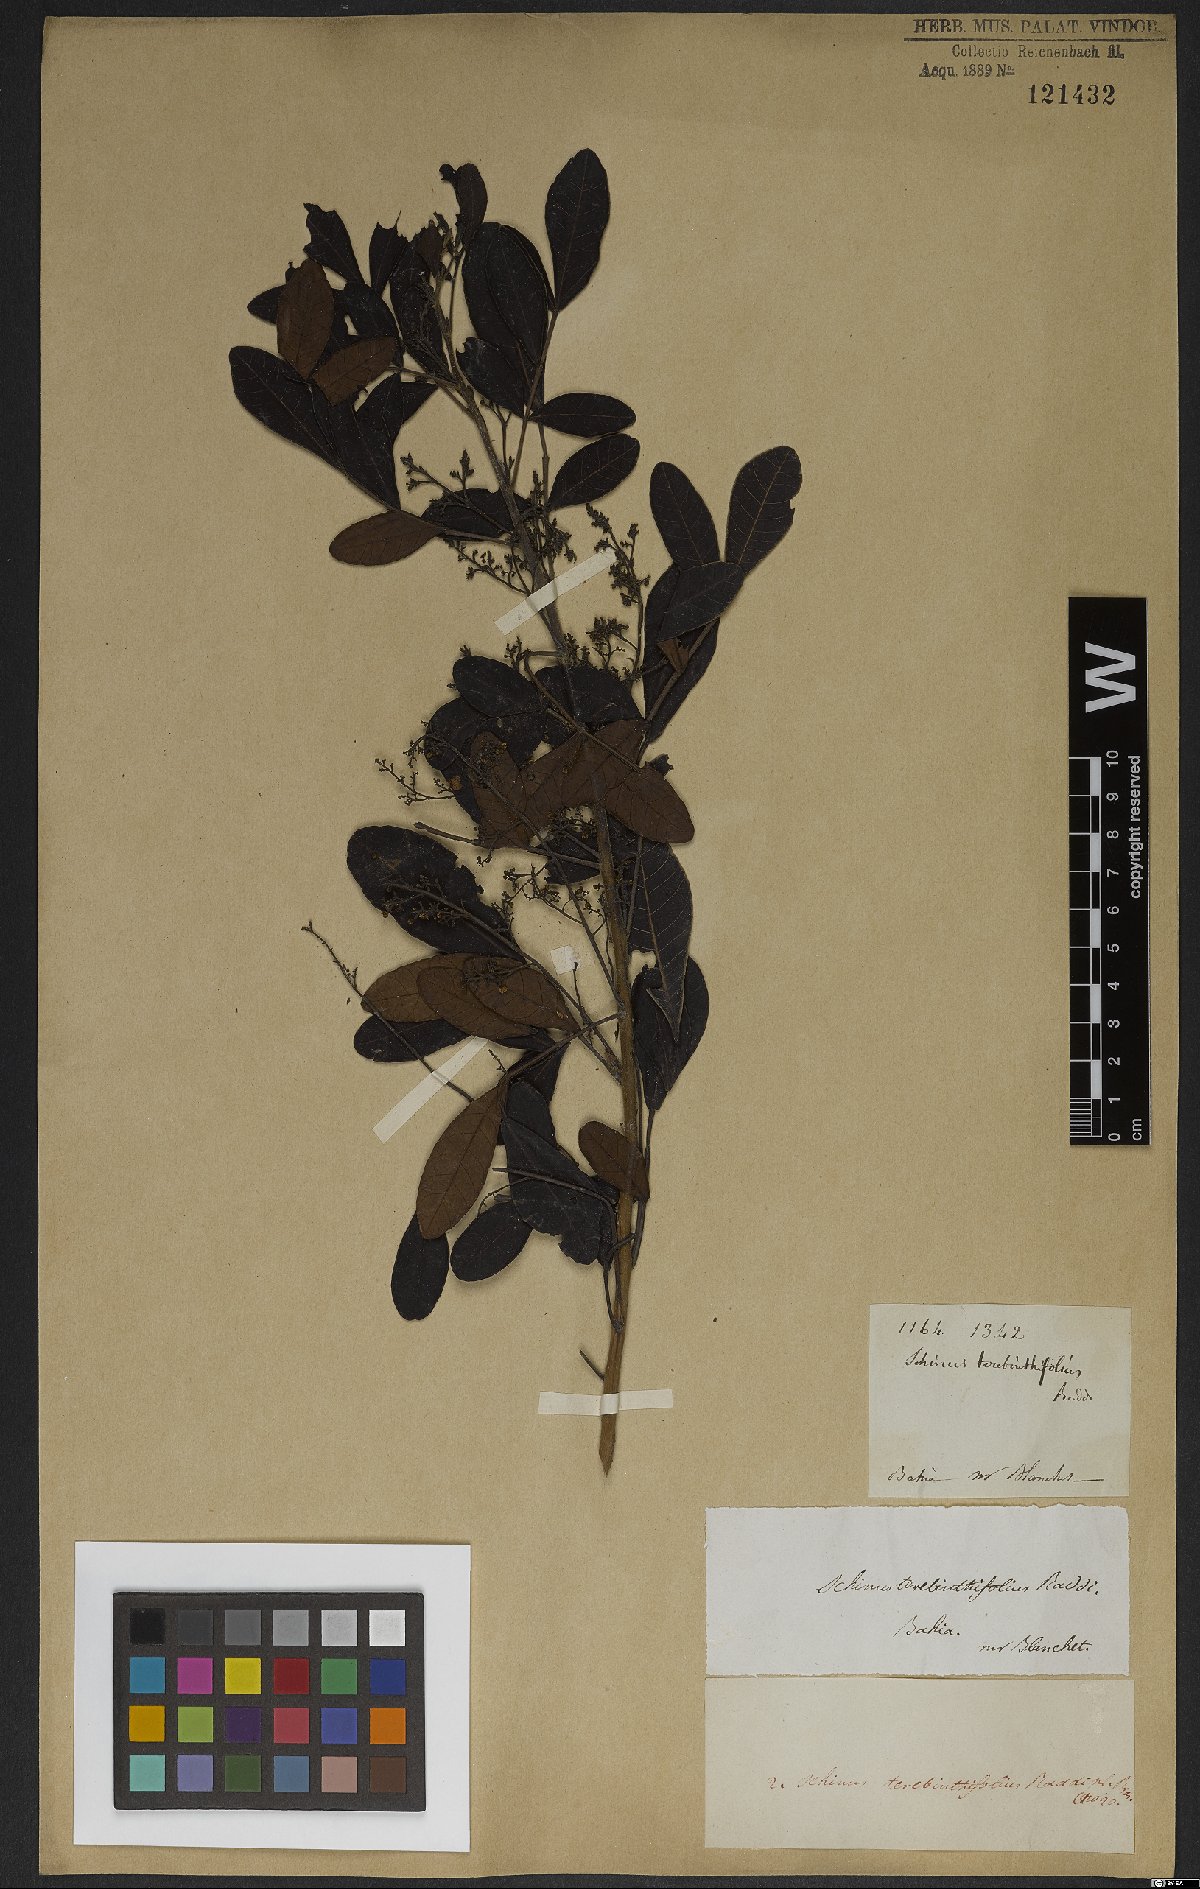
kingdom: Plantae
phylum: Tracheophyta
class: Magnoliopsida
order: Sapindales
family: Anacardiaceae
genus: Schinus
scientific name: Schinus terebinthifolia
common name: Brazilian peppertree
